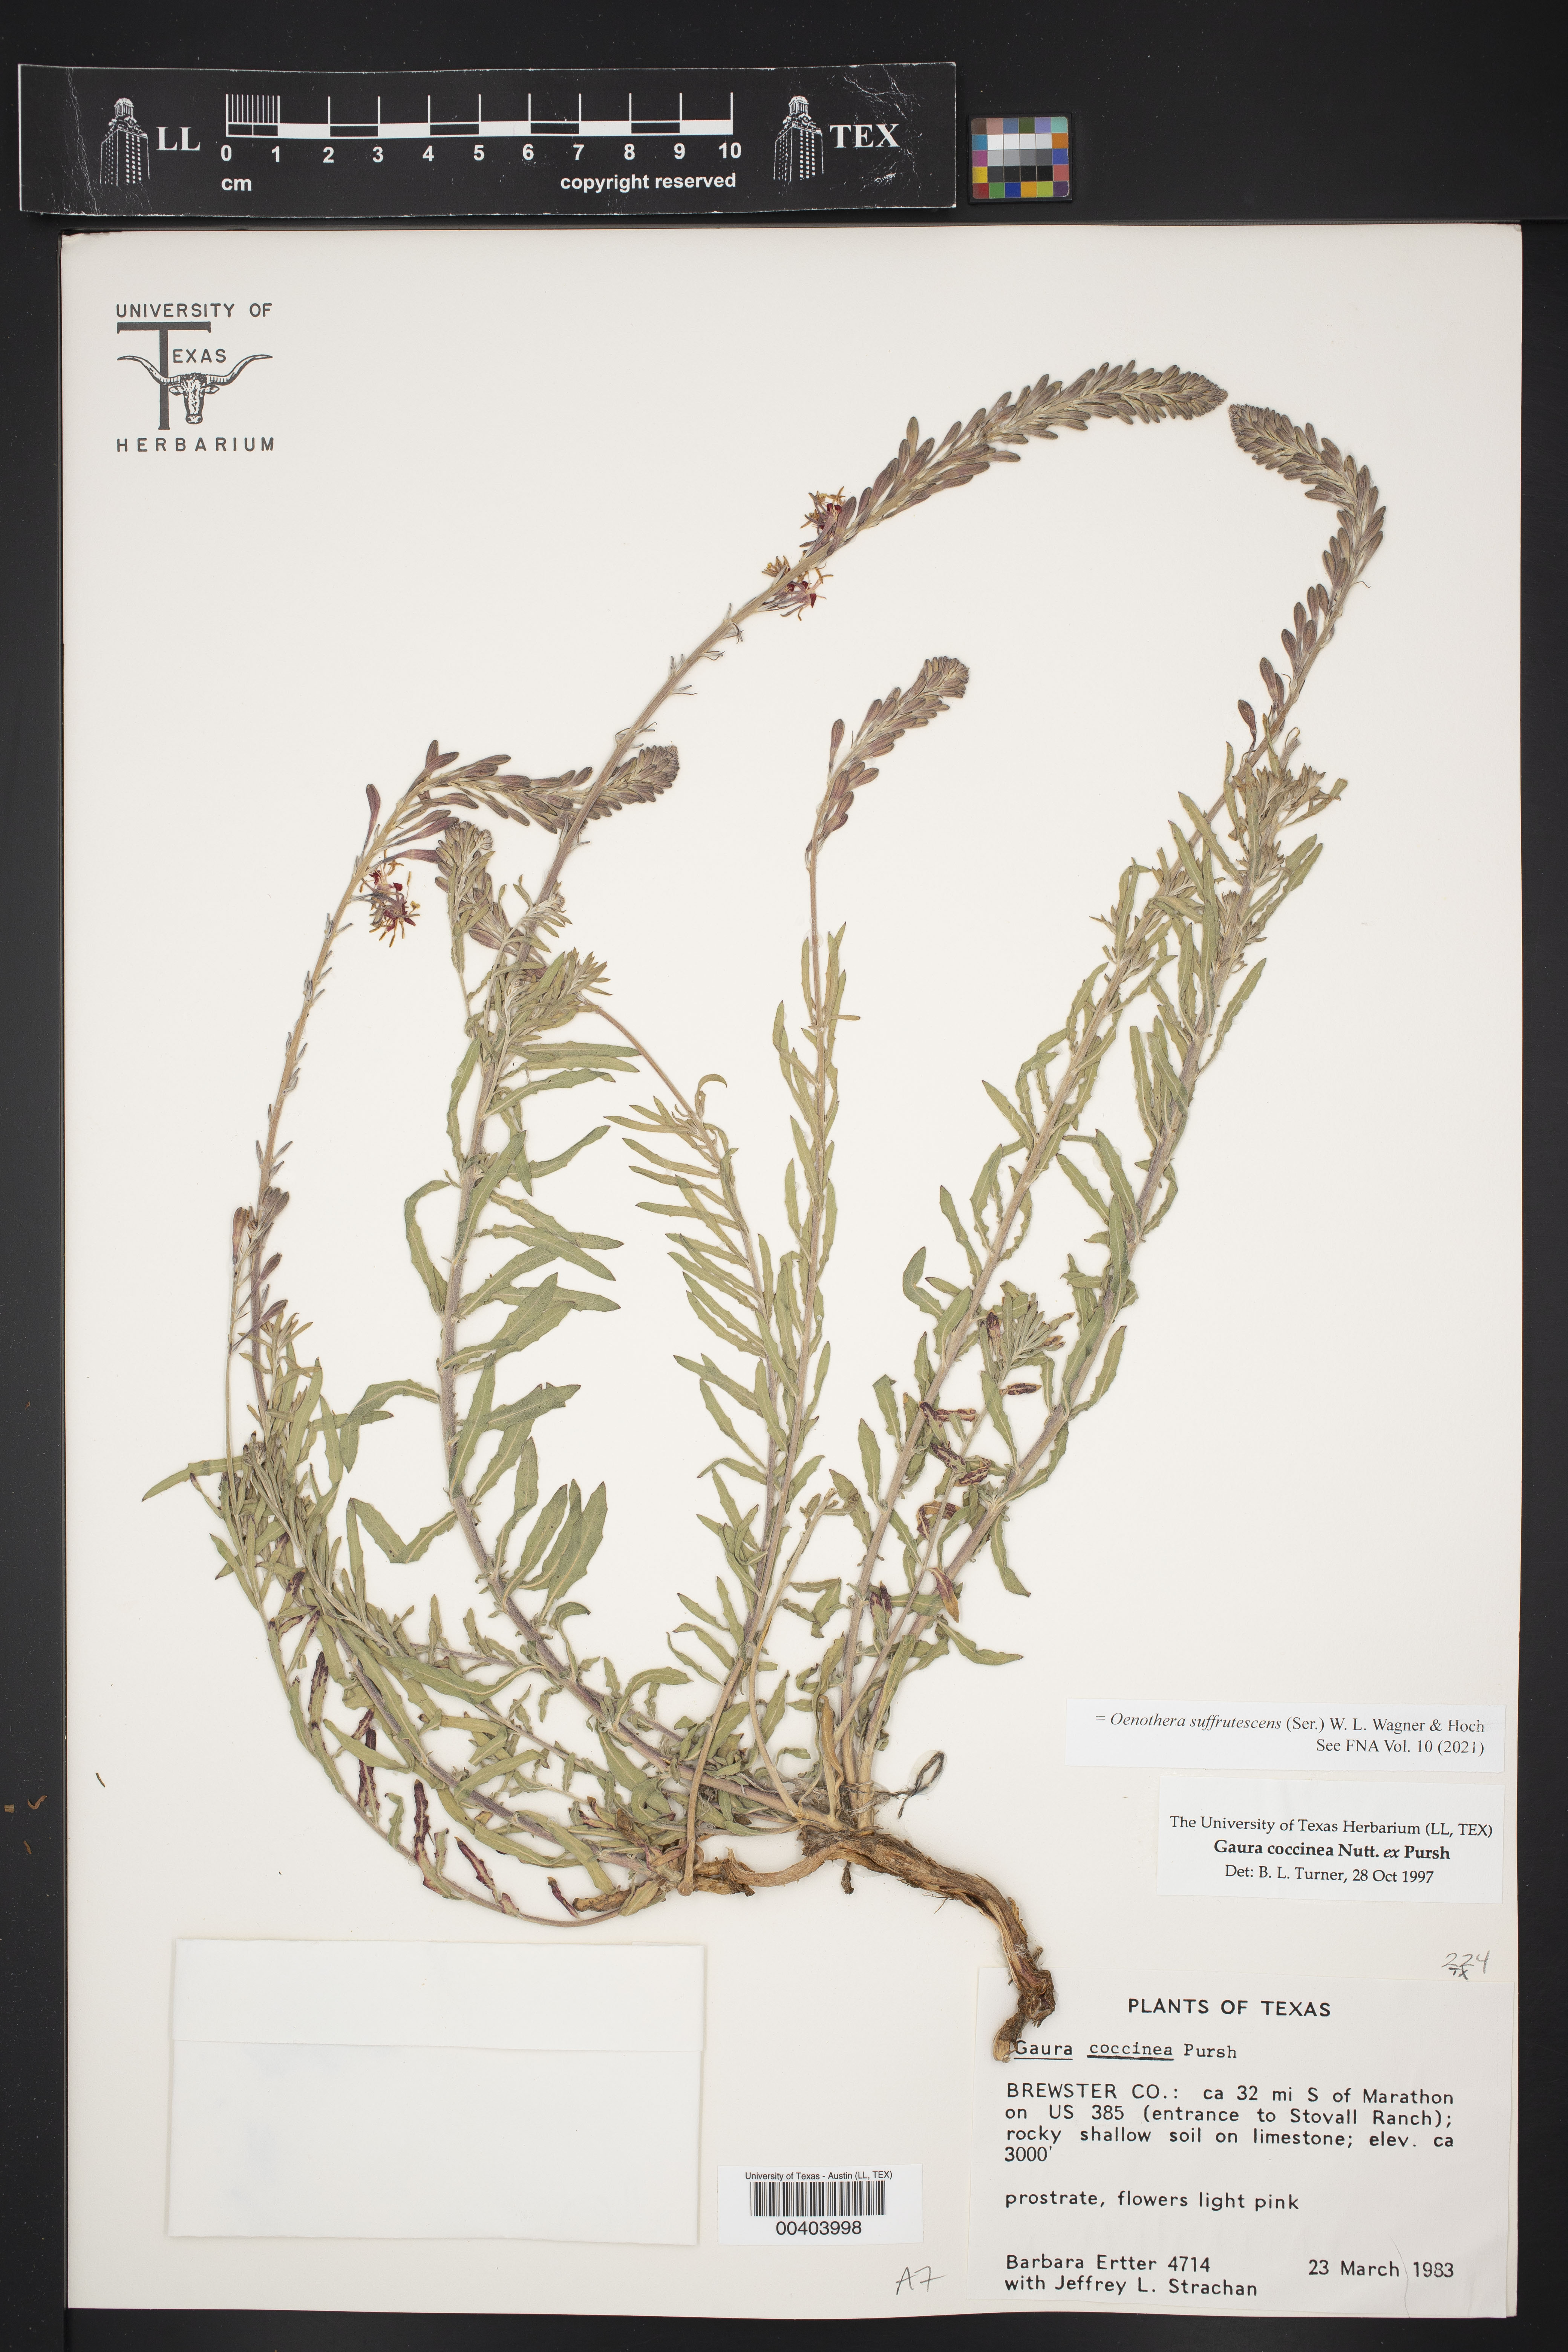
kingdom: Plantae
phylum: Tracheophyta
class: Magnoliopsida
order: Myrtales
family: Onagraceae
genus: Oenothera
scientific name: Oenothera suffrutescens
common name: Scarlet beeblossom
